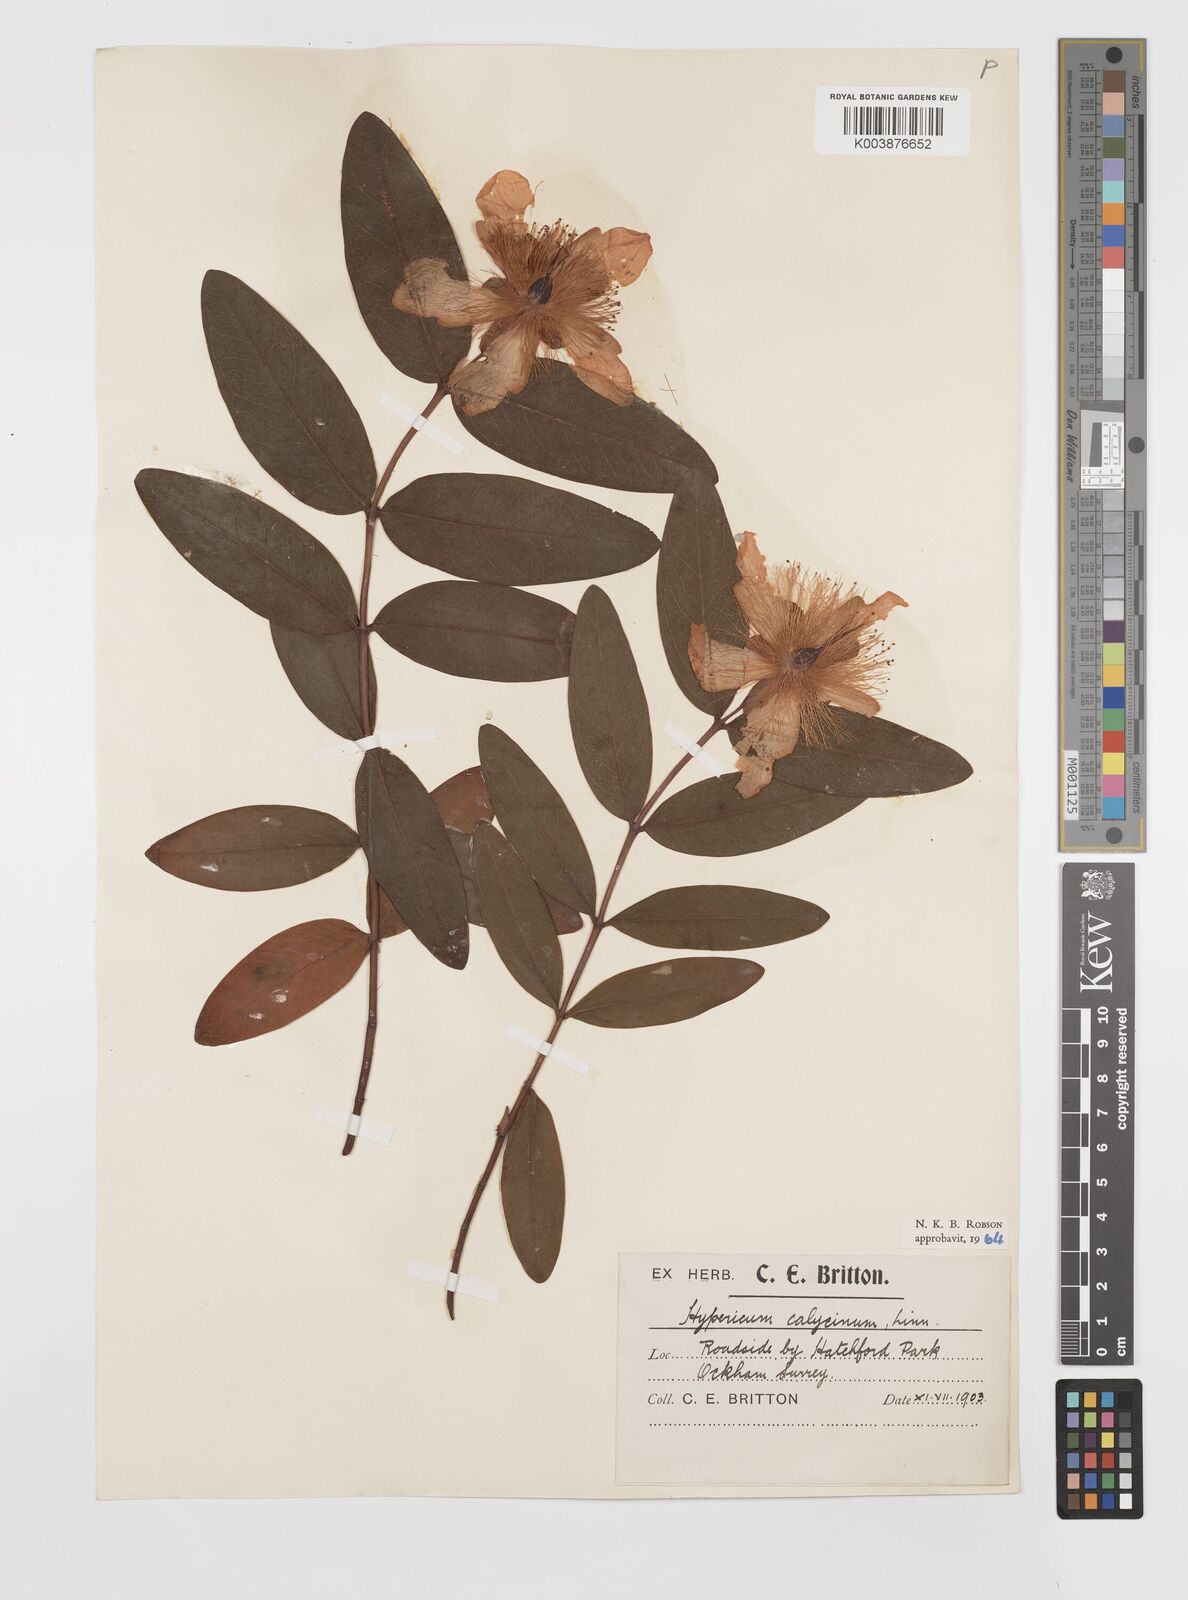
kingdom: Plantae
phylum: Tracheophyta
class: Magnoliopsida
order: Malpighiales
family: Hypericaceae
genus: Hypericum
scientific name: Hypericum calycinum
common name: Rose-of-sharon
